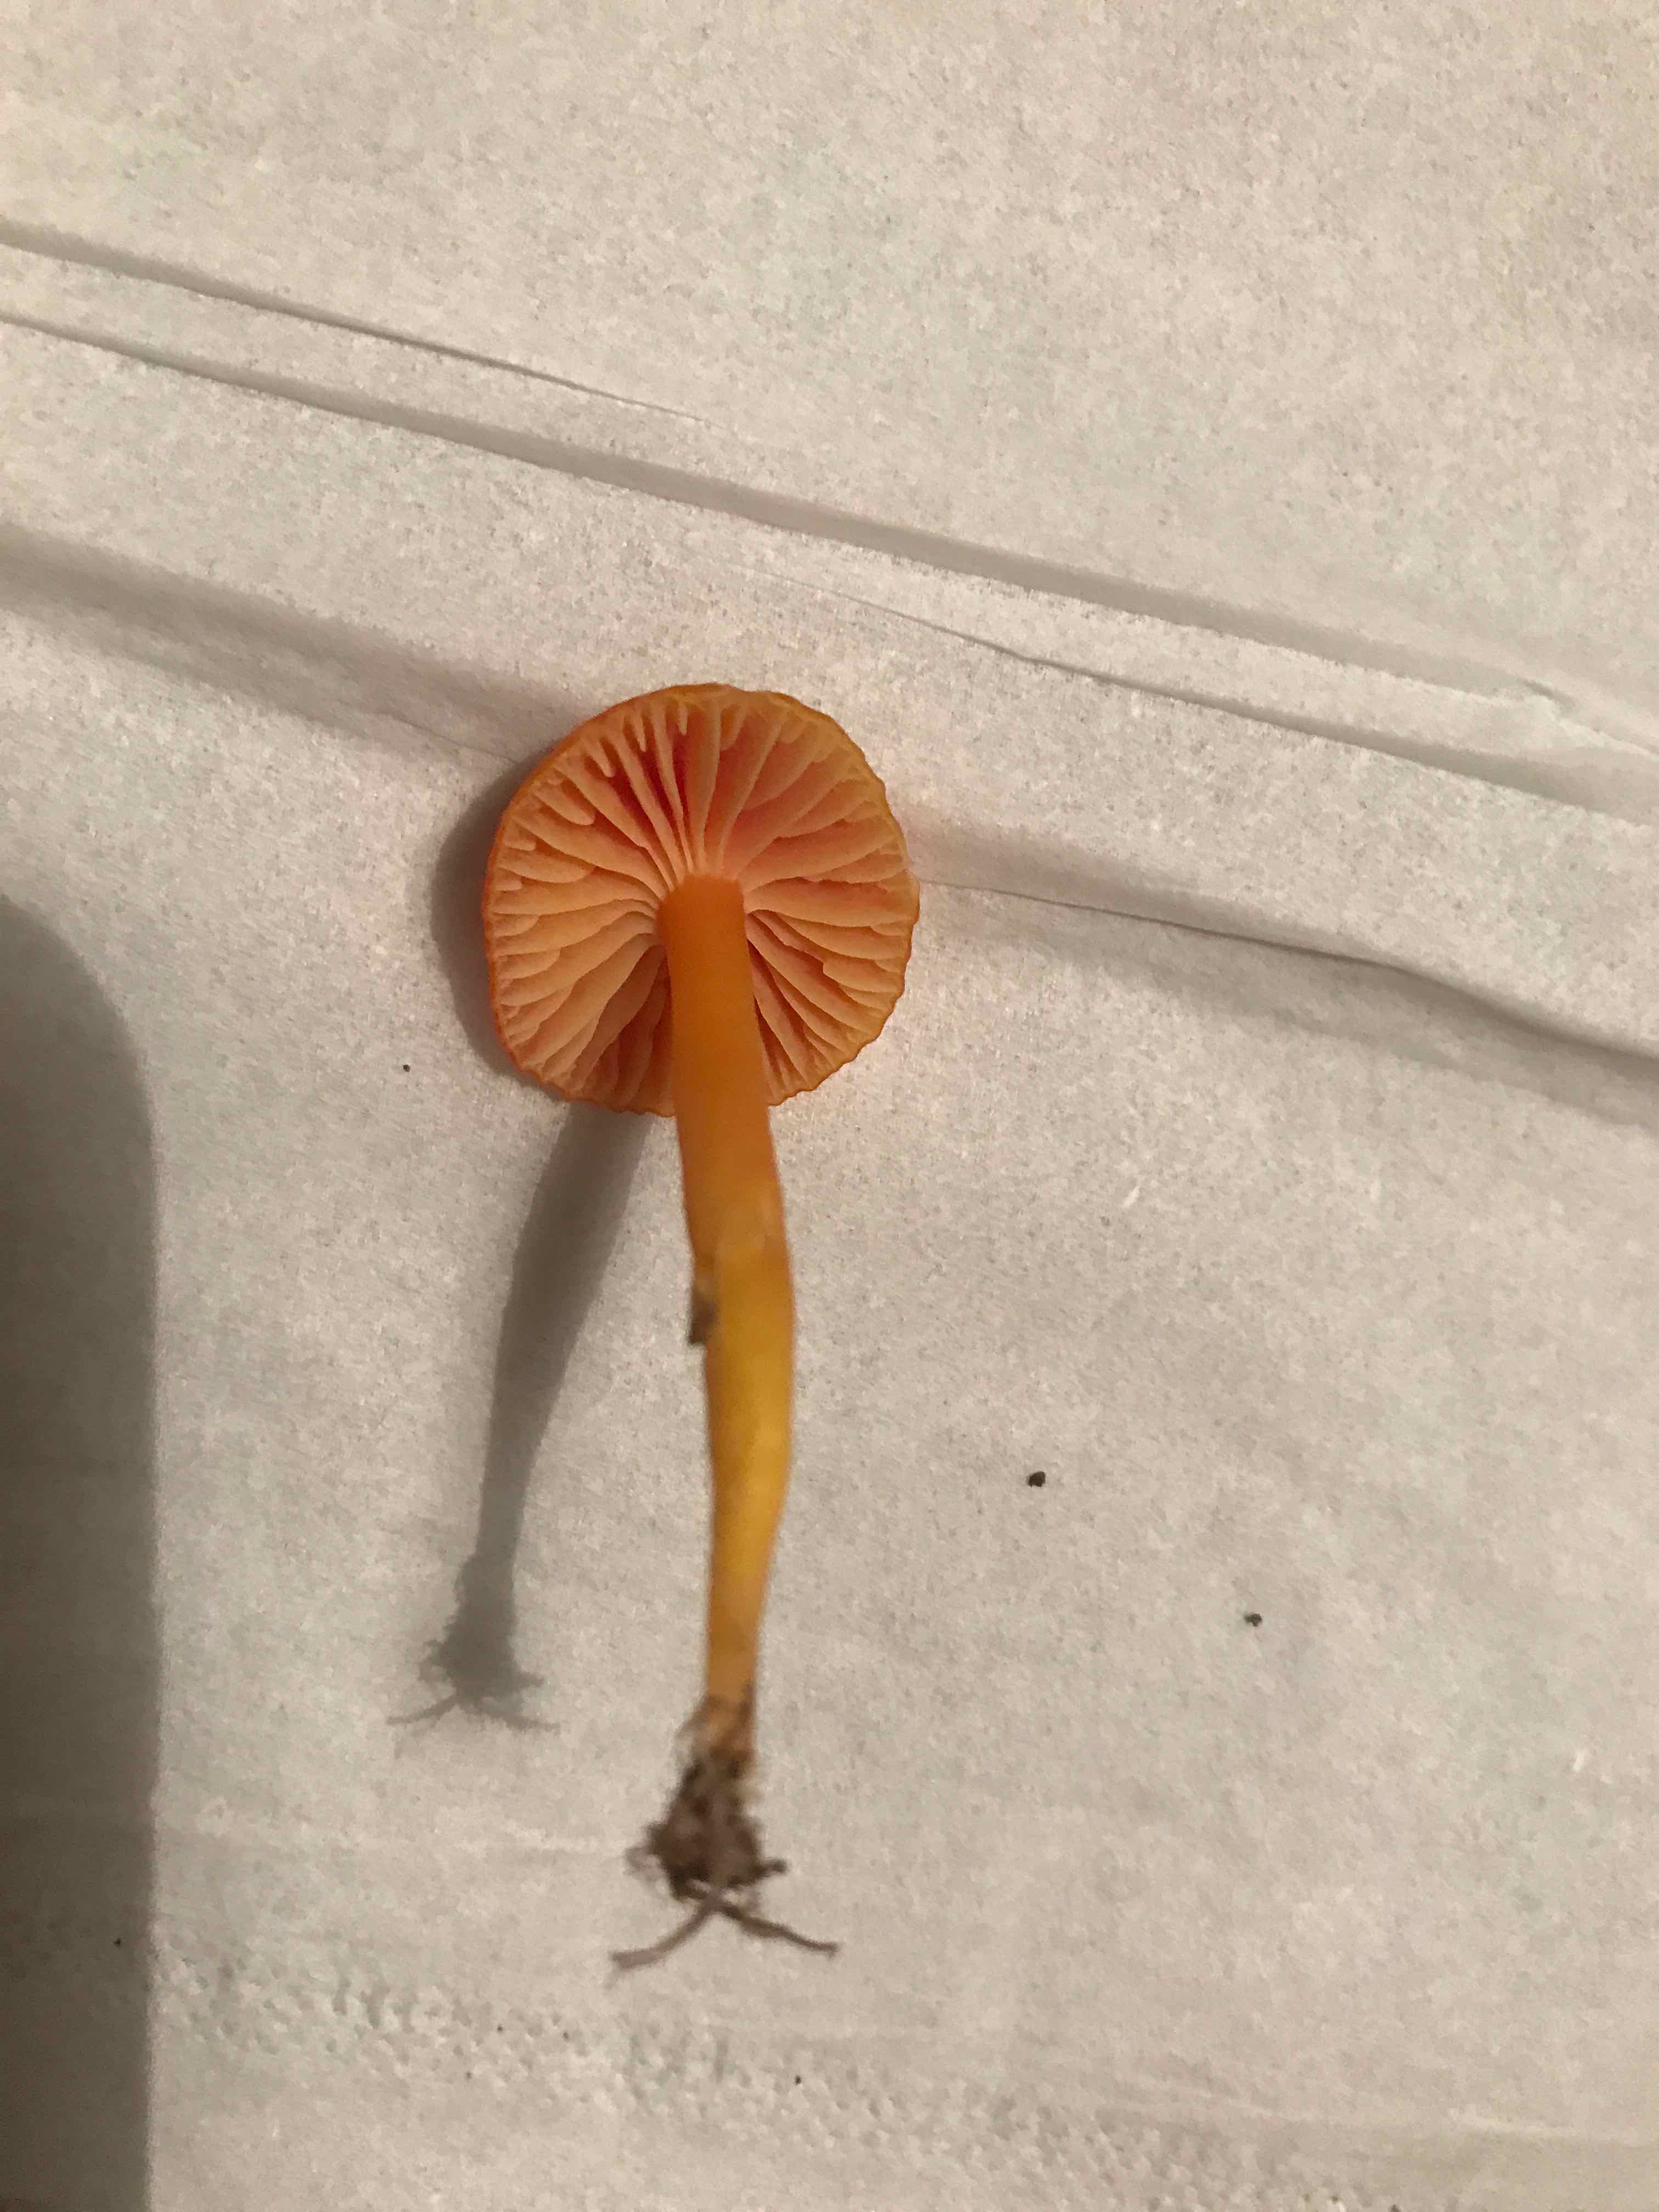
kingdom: Fungi
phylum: Basidiomycota
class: Agaricomycetes
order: Agaricales
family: Hygrophoraceae
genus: Hygrocybe
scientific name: Hygrocybe ceracea
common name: voksgul vokshat
